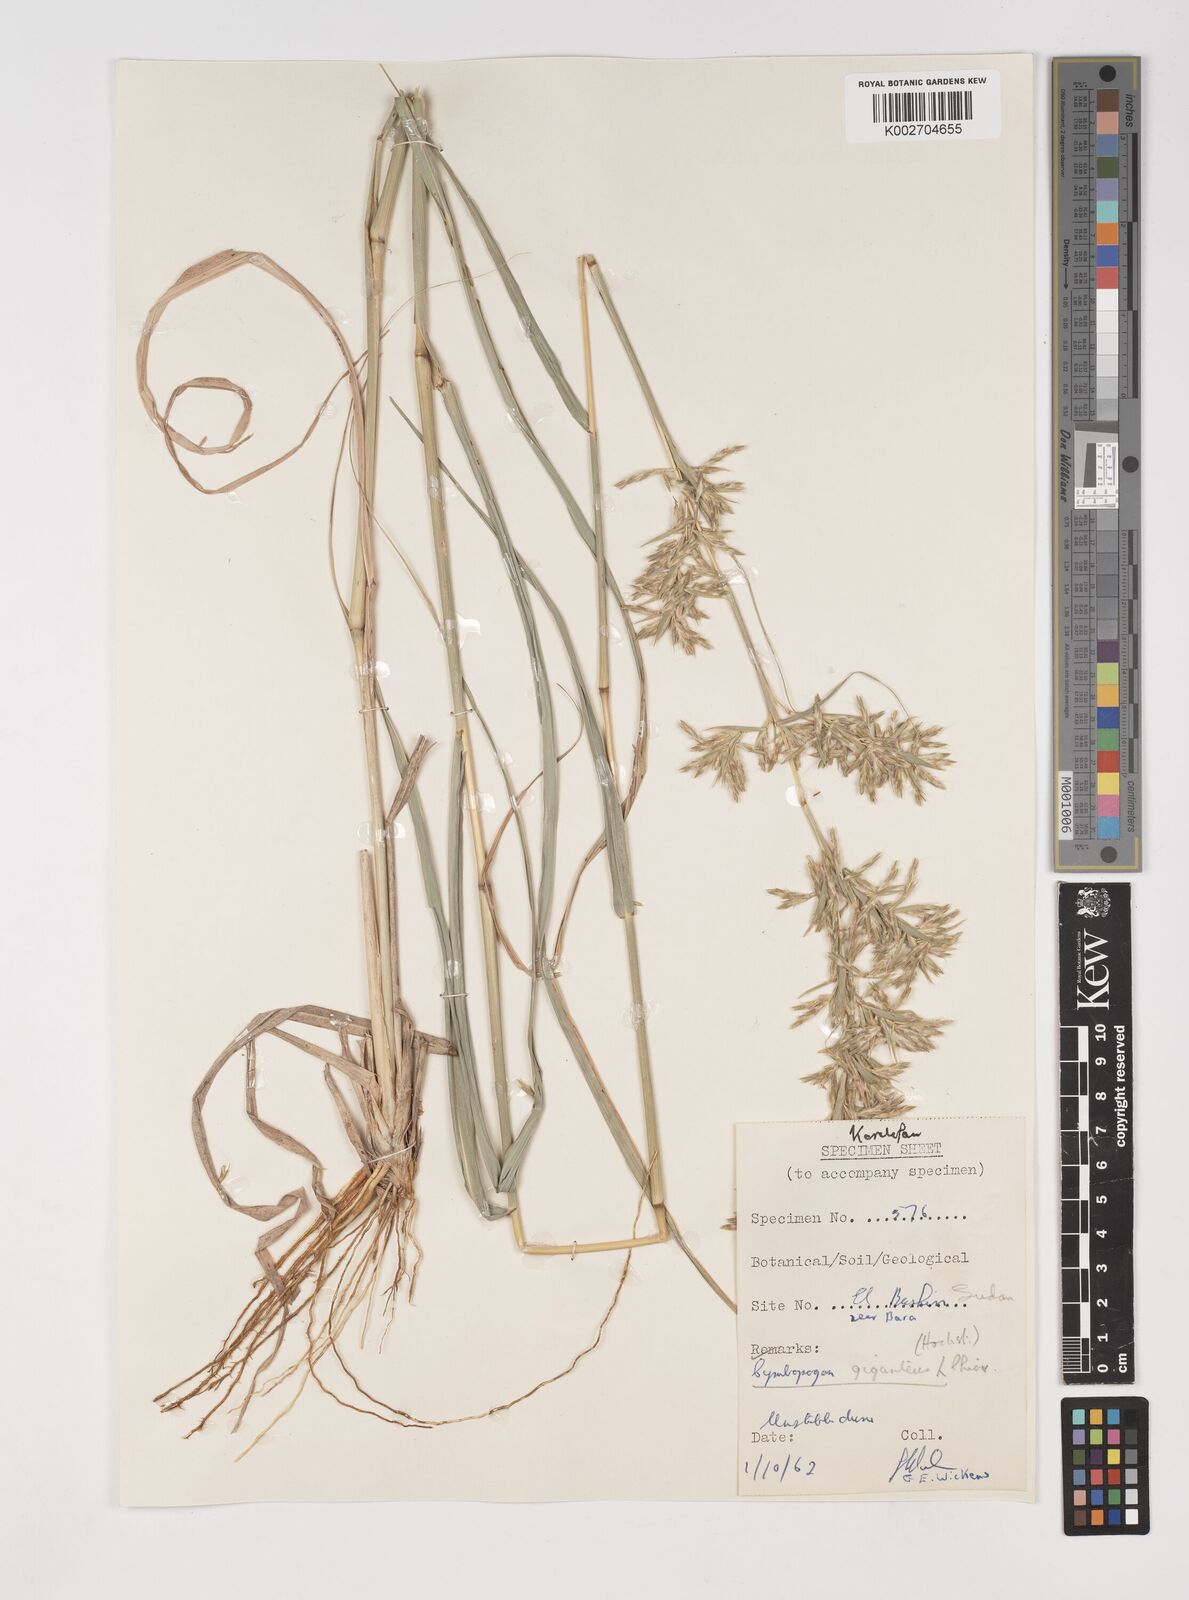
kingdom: Plantae
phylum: Tracheophyta
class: Liliopsida
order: Poales
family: Poaceae
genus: Cymbopogon
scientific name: Cymbopogon giganteus
